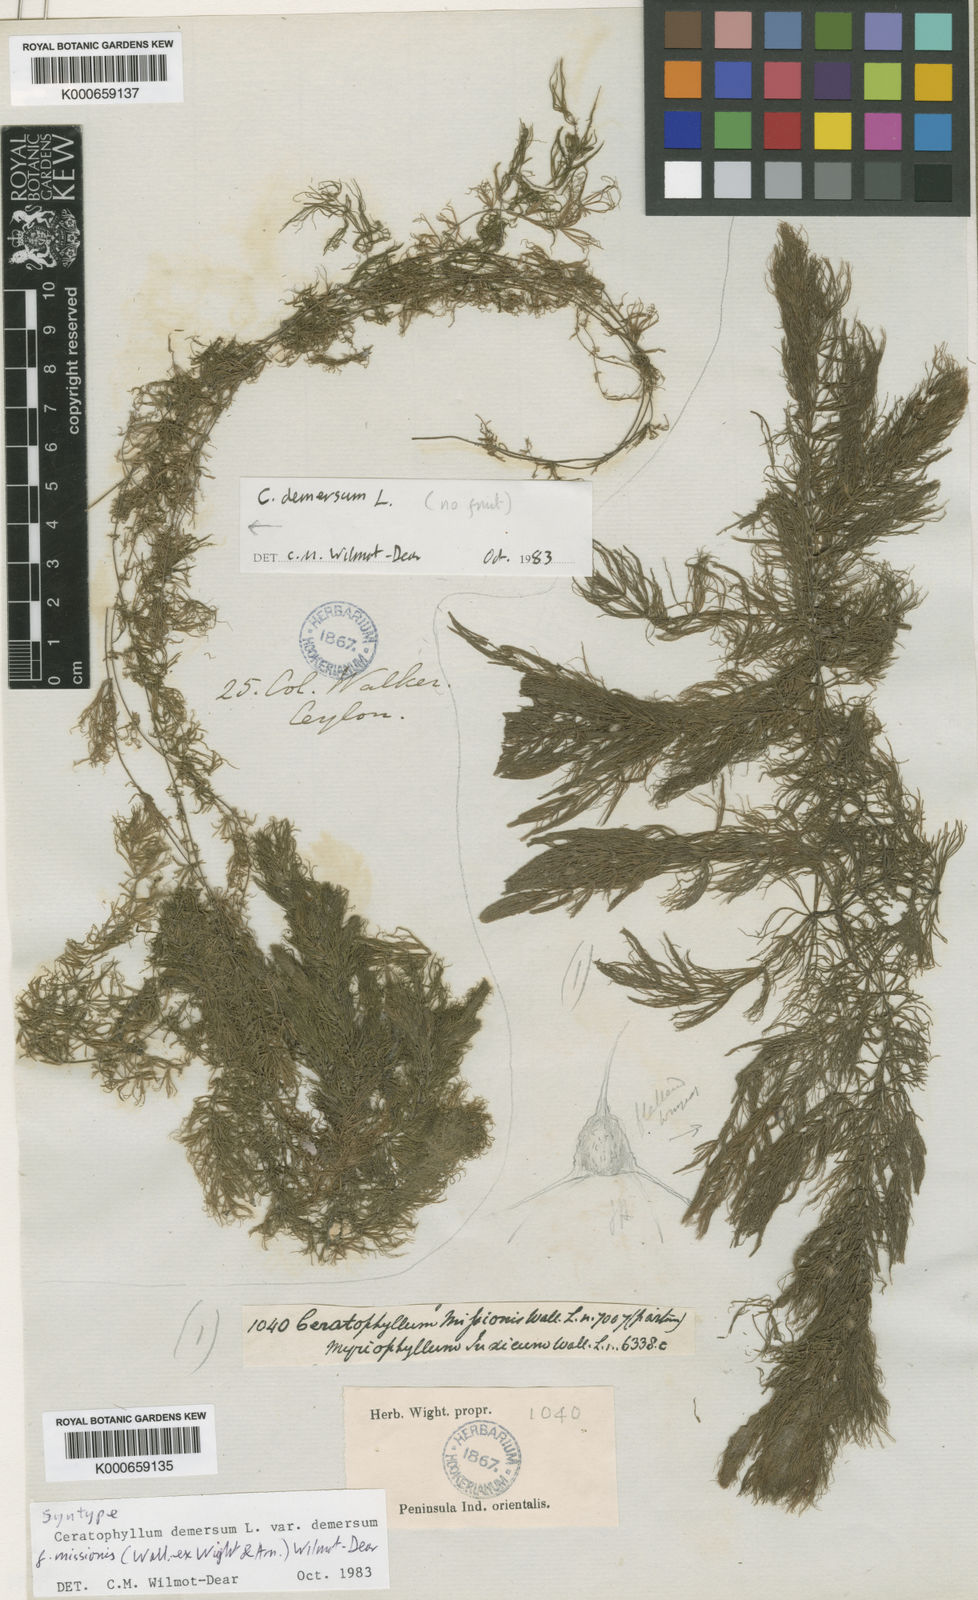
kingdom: Plantae
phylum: Tracheophyta
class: Magnoliopsida
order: Ceratophyllales
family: Ceratophyllaceae
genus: Ceratophyllum
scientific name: Ceratophyllum demersum
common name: Rigid hornwort
